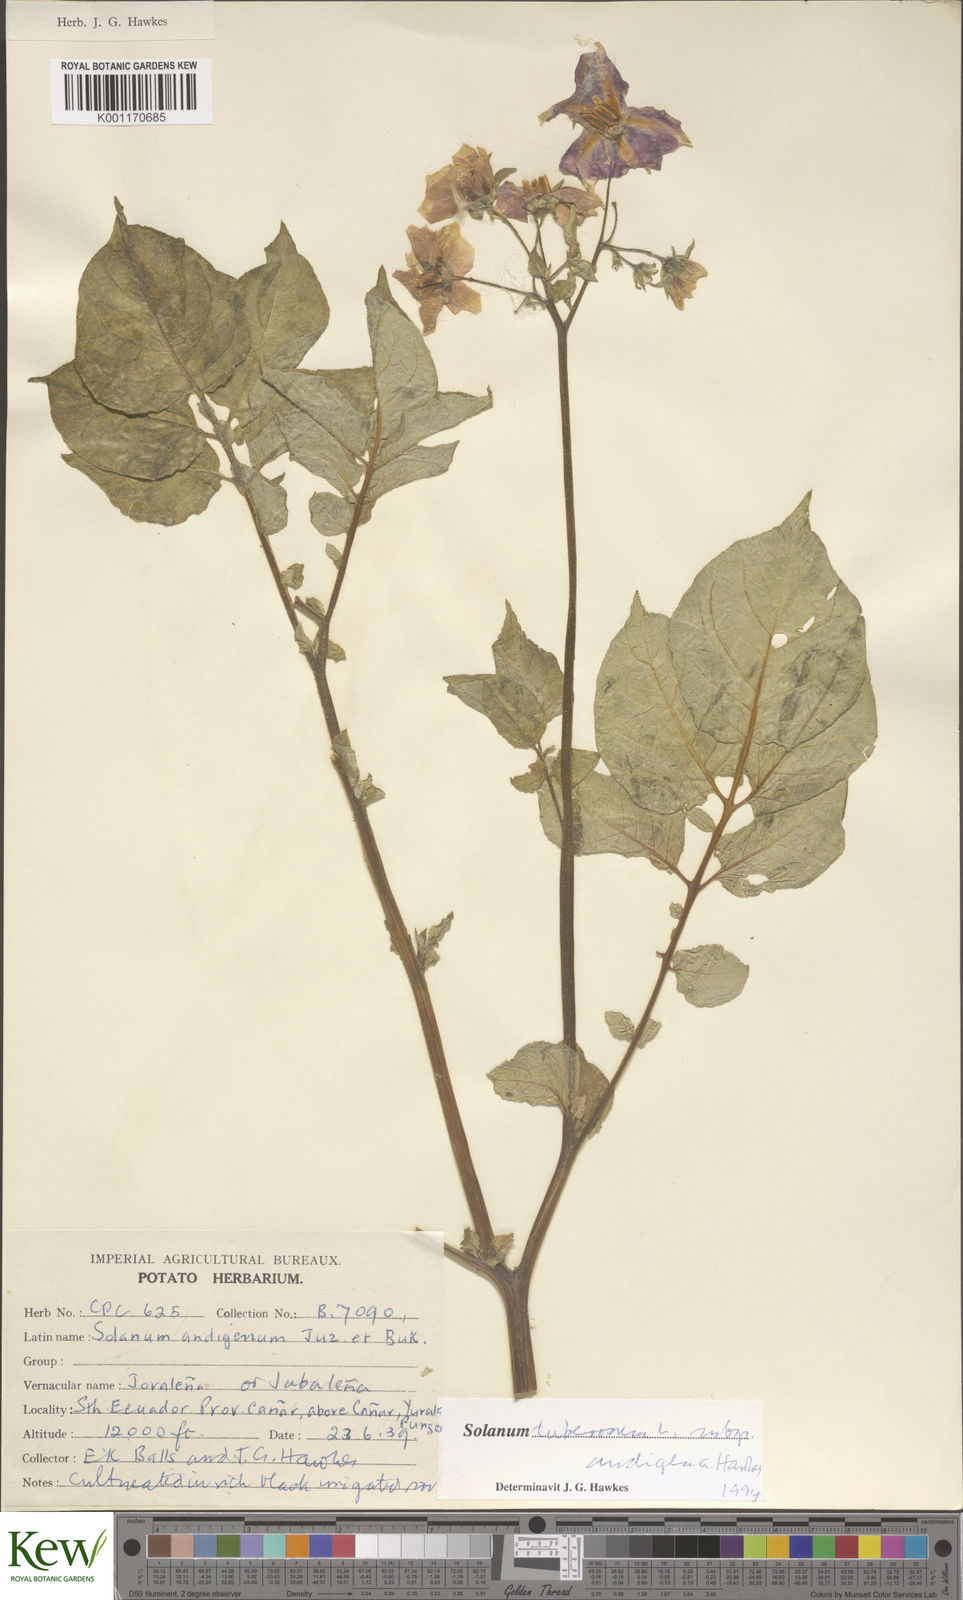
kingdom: Plantae
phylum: Tracheophyta
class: Magnoliopsida
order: Solanales
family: Solanaceae
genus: Solanum
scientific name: Solanum tuberosum
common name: Potato
